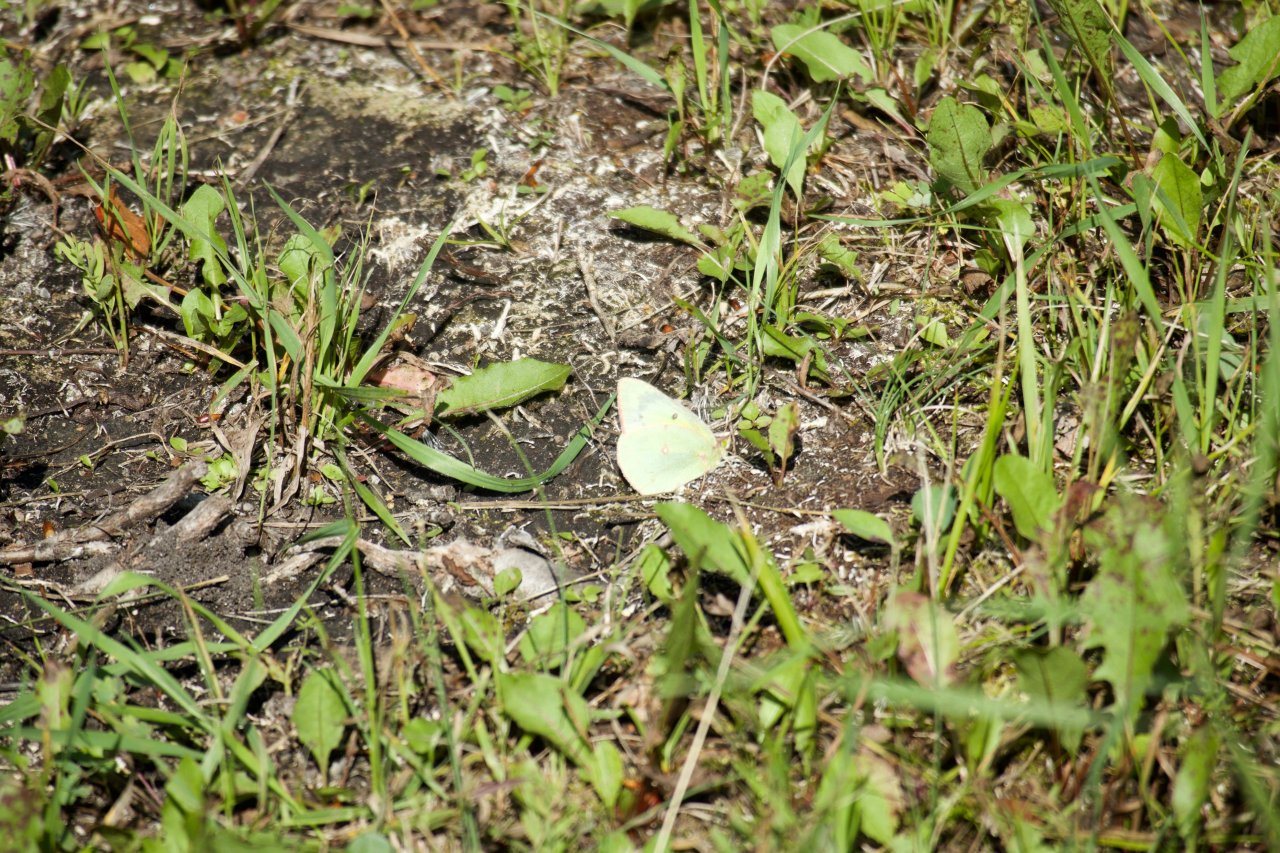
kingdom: Animalia
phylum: Arthropoda
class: Insecta
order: Lepidoptera
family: Pieridae
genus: Colias
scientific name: Colias philodice
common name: Clouded Sulphur
